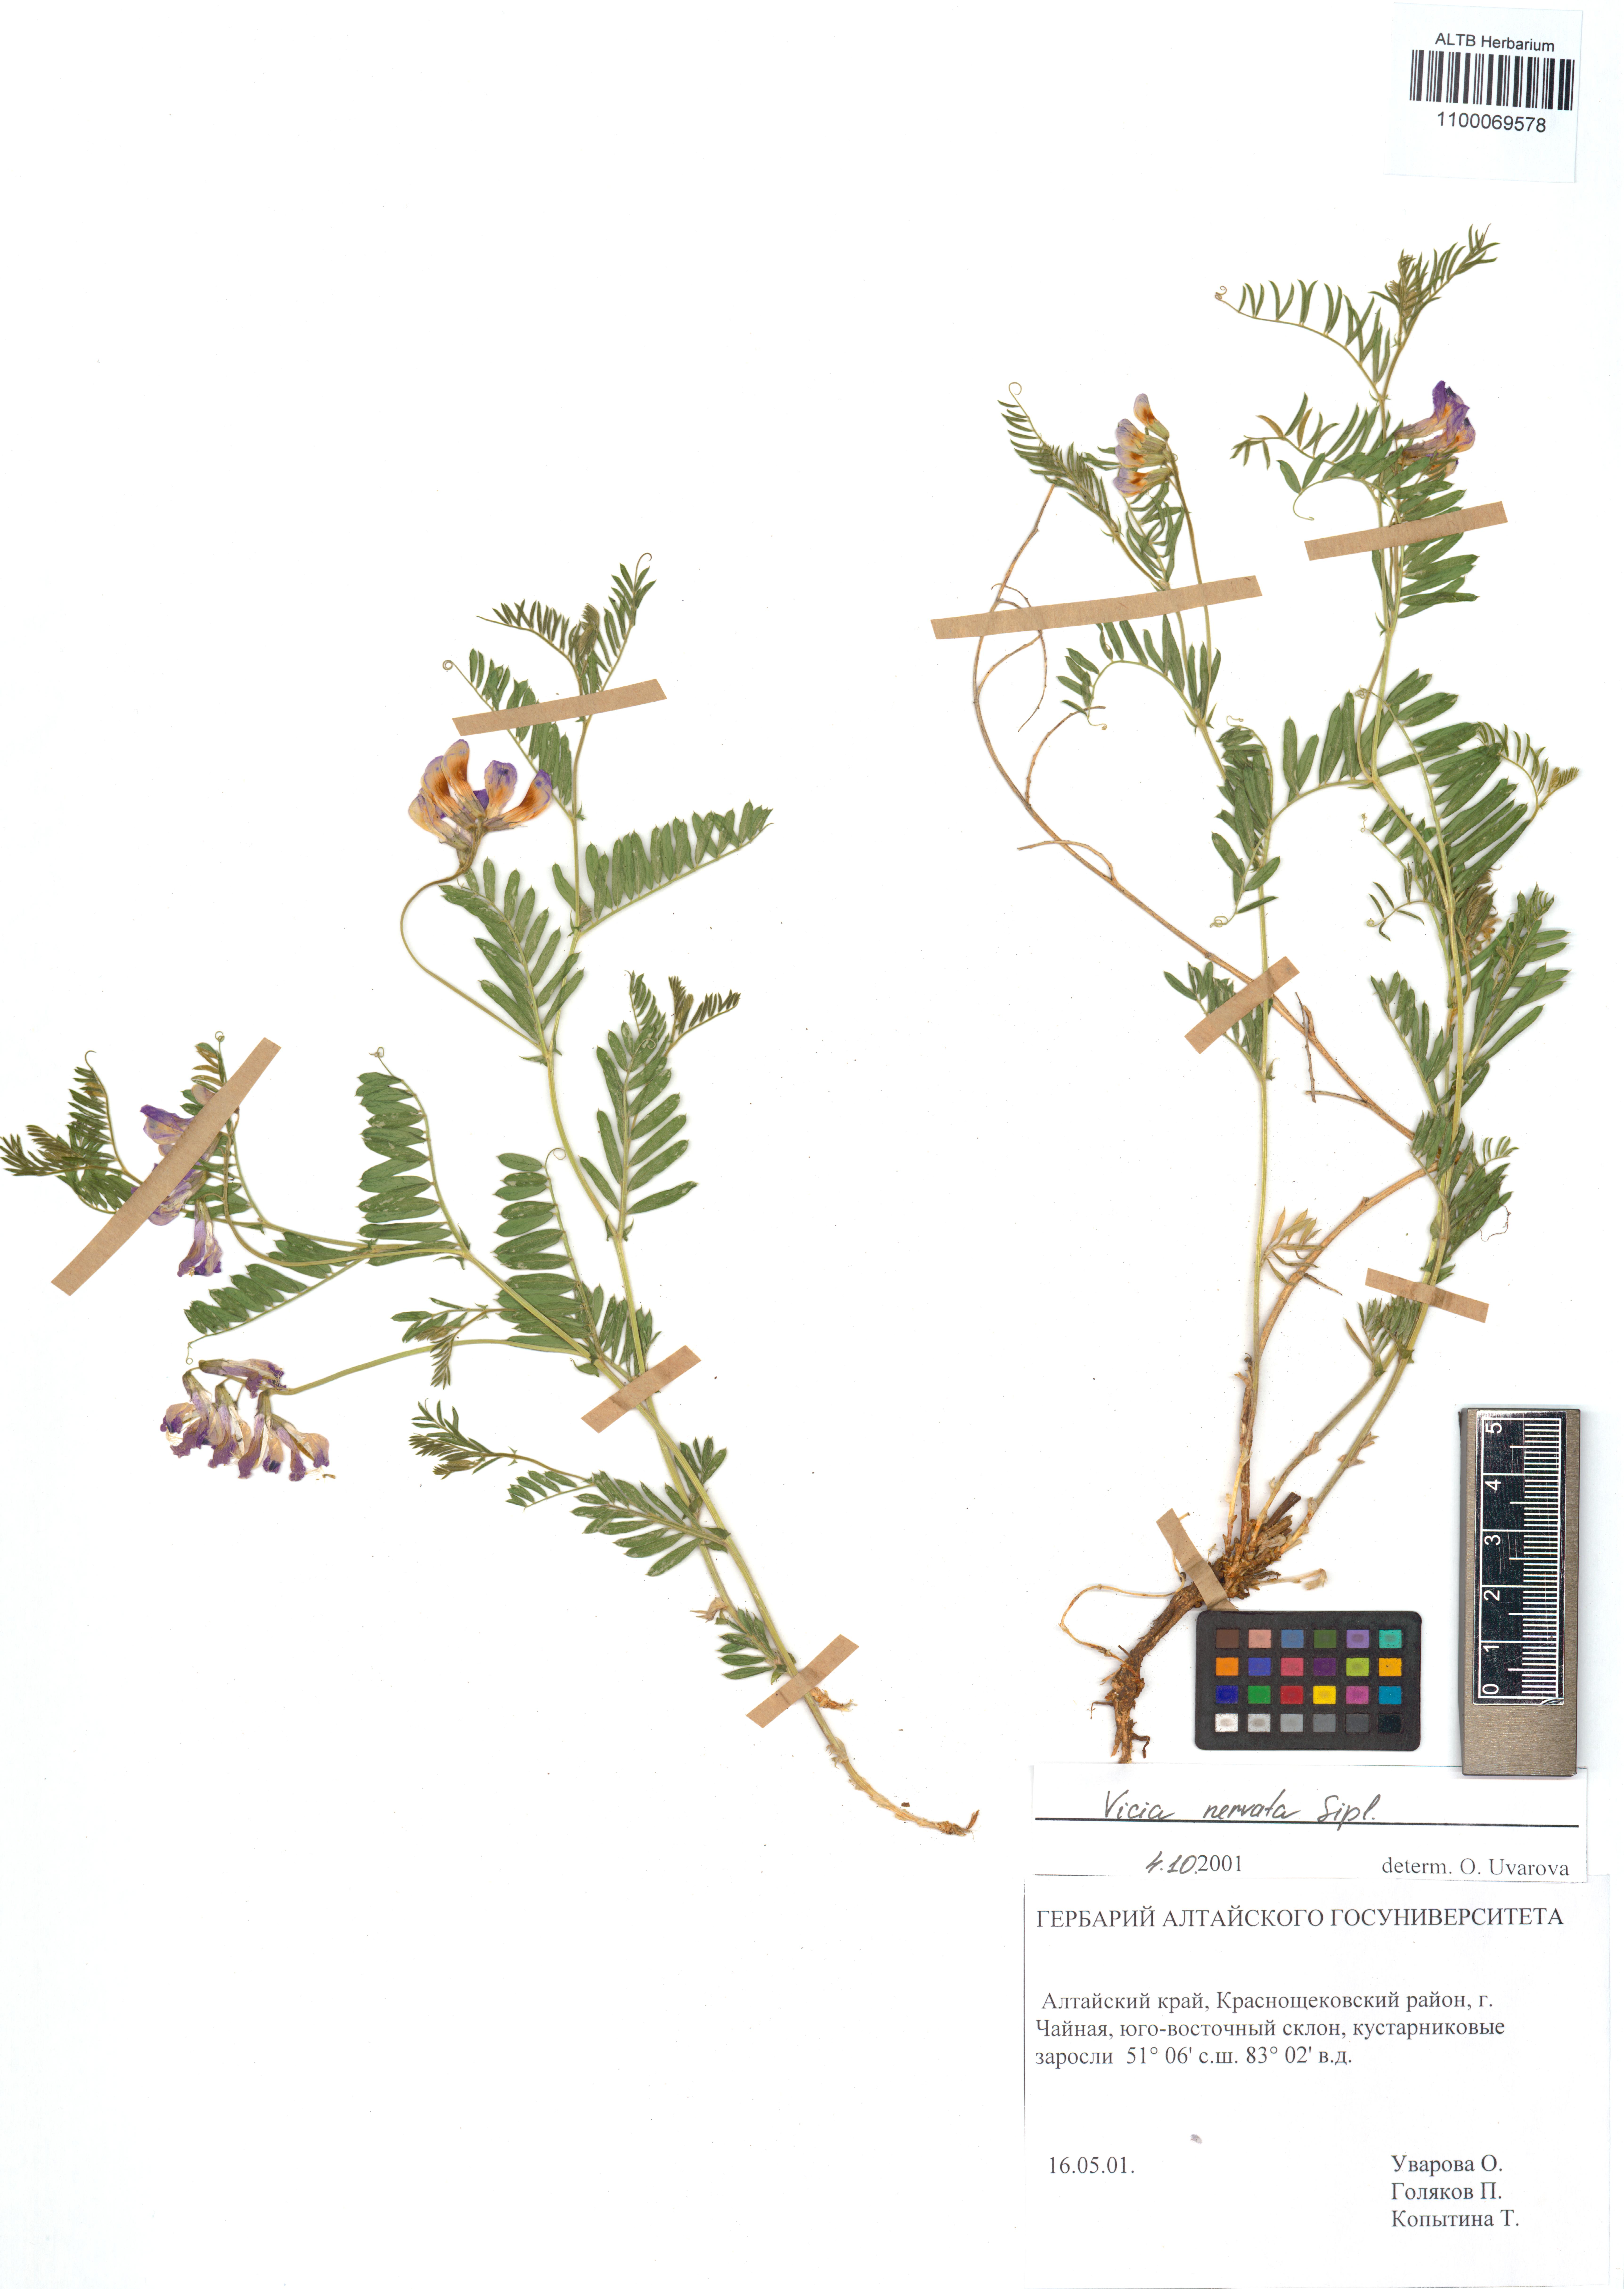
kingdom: Plantae
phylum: Tracheophyta
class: Magnoliopsida
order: Fabales
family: Fabaceae
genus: Vicia
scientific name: Vicia multicaulis
